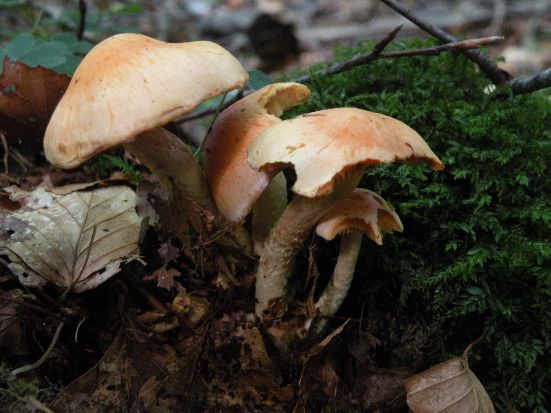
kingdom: Fungi
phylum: Basidiomycota
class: Agaricomycetes
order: Agaricales
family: Strophariaceae
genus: Pyrrhulomyces
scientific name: Pyrrhulomyces astragalinus
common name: safran-skælhat
